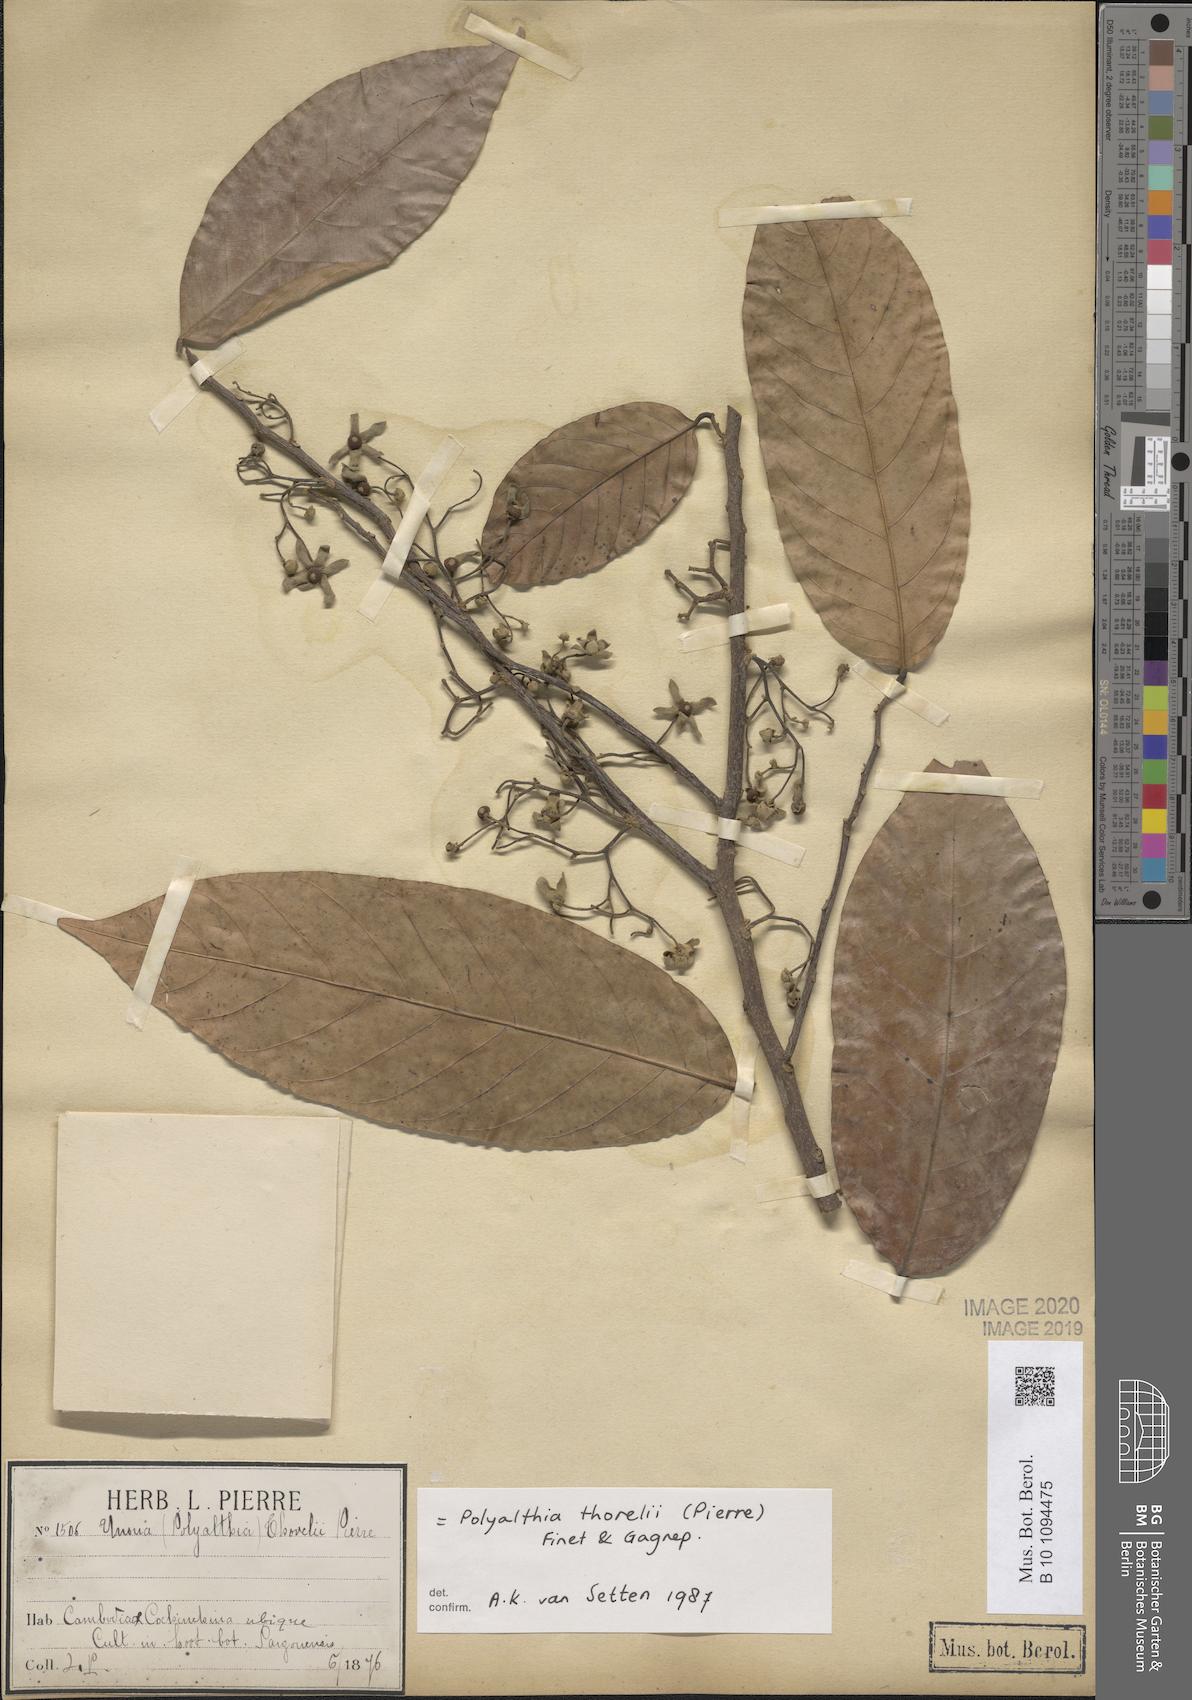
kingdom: Plantae
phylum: Tracheophyta
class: Magnoliopsida
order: Magnoliales
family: Annonaceae
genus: Polyalthia
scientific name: Polyalthia thorelii
